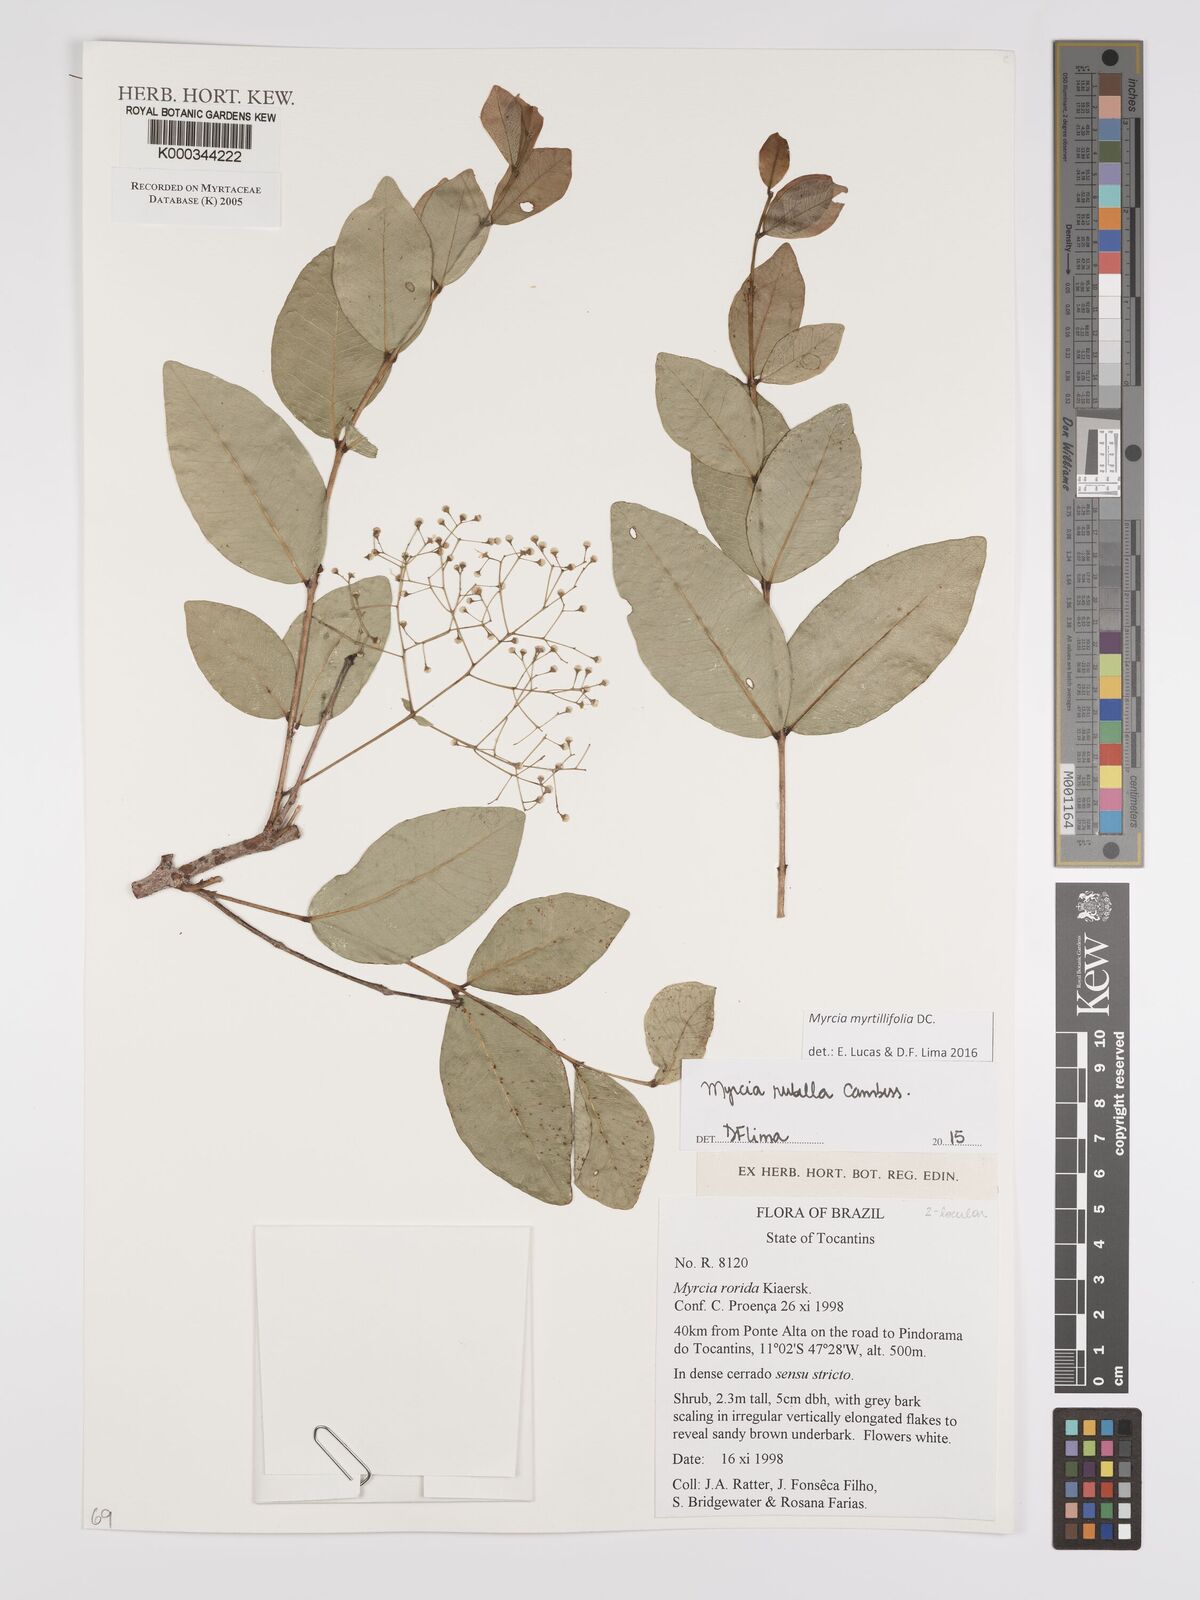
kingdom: Plantae
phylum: Tracheophyta
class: Magnoliopsida
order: Myrtales
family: Myrtaceae
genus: Myrcia
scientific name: Myrcia guianensis
